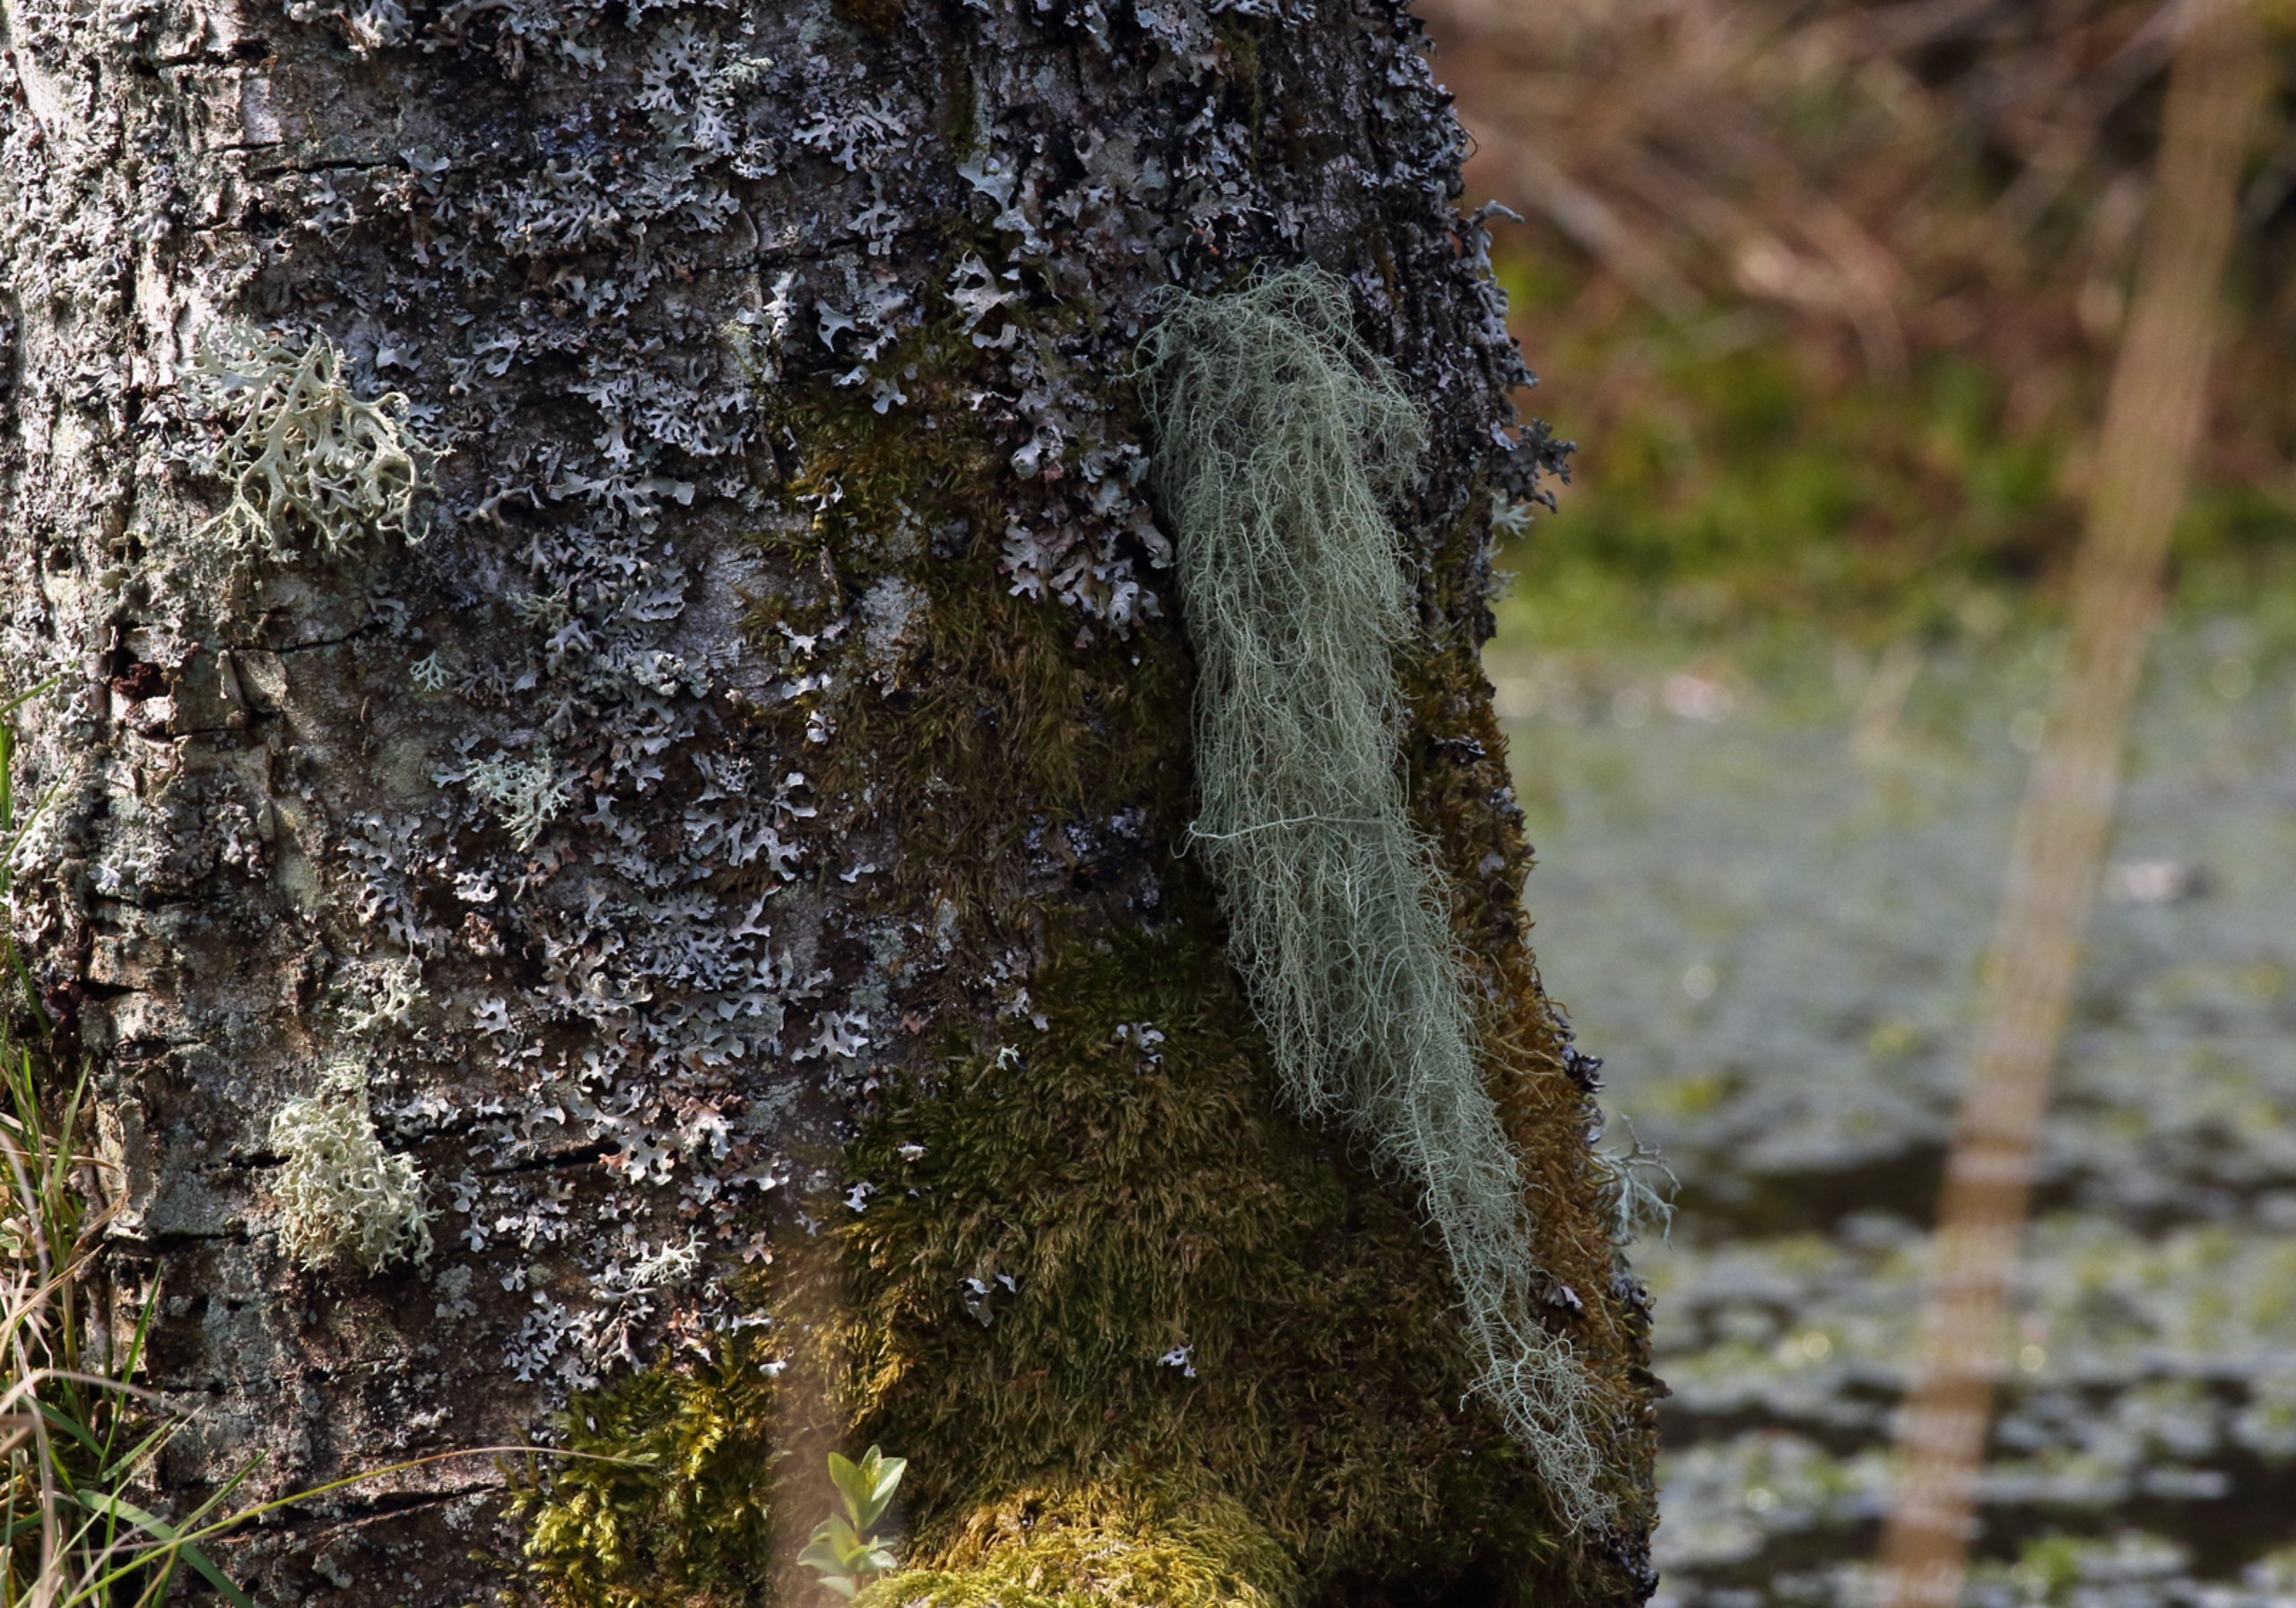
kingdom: Fungi
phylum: Ascomycota
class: Lecanoromycetes
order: Lecanorales
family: Parmeliaceae
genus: Usnea
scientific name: Usnea
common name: Skæglav
